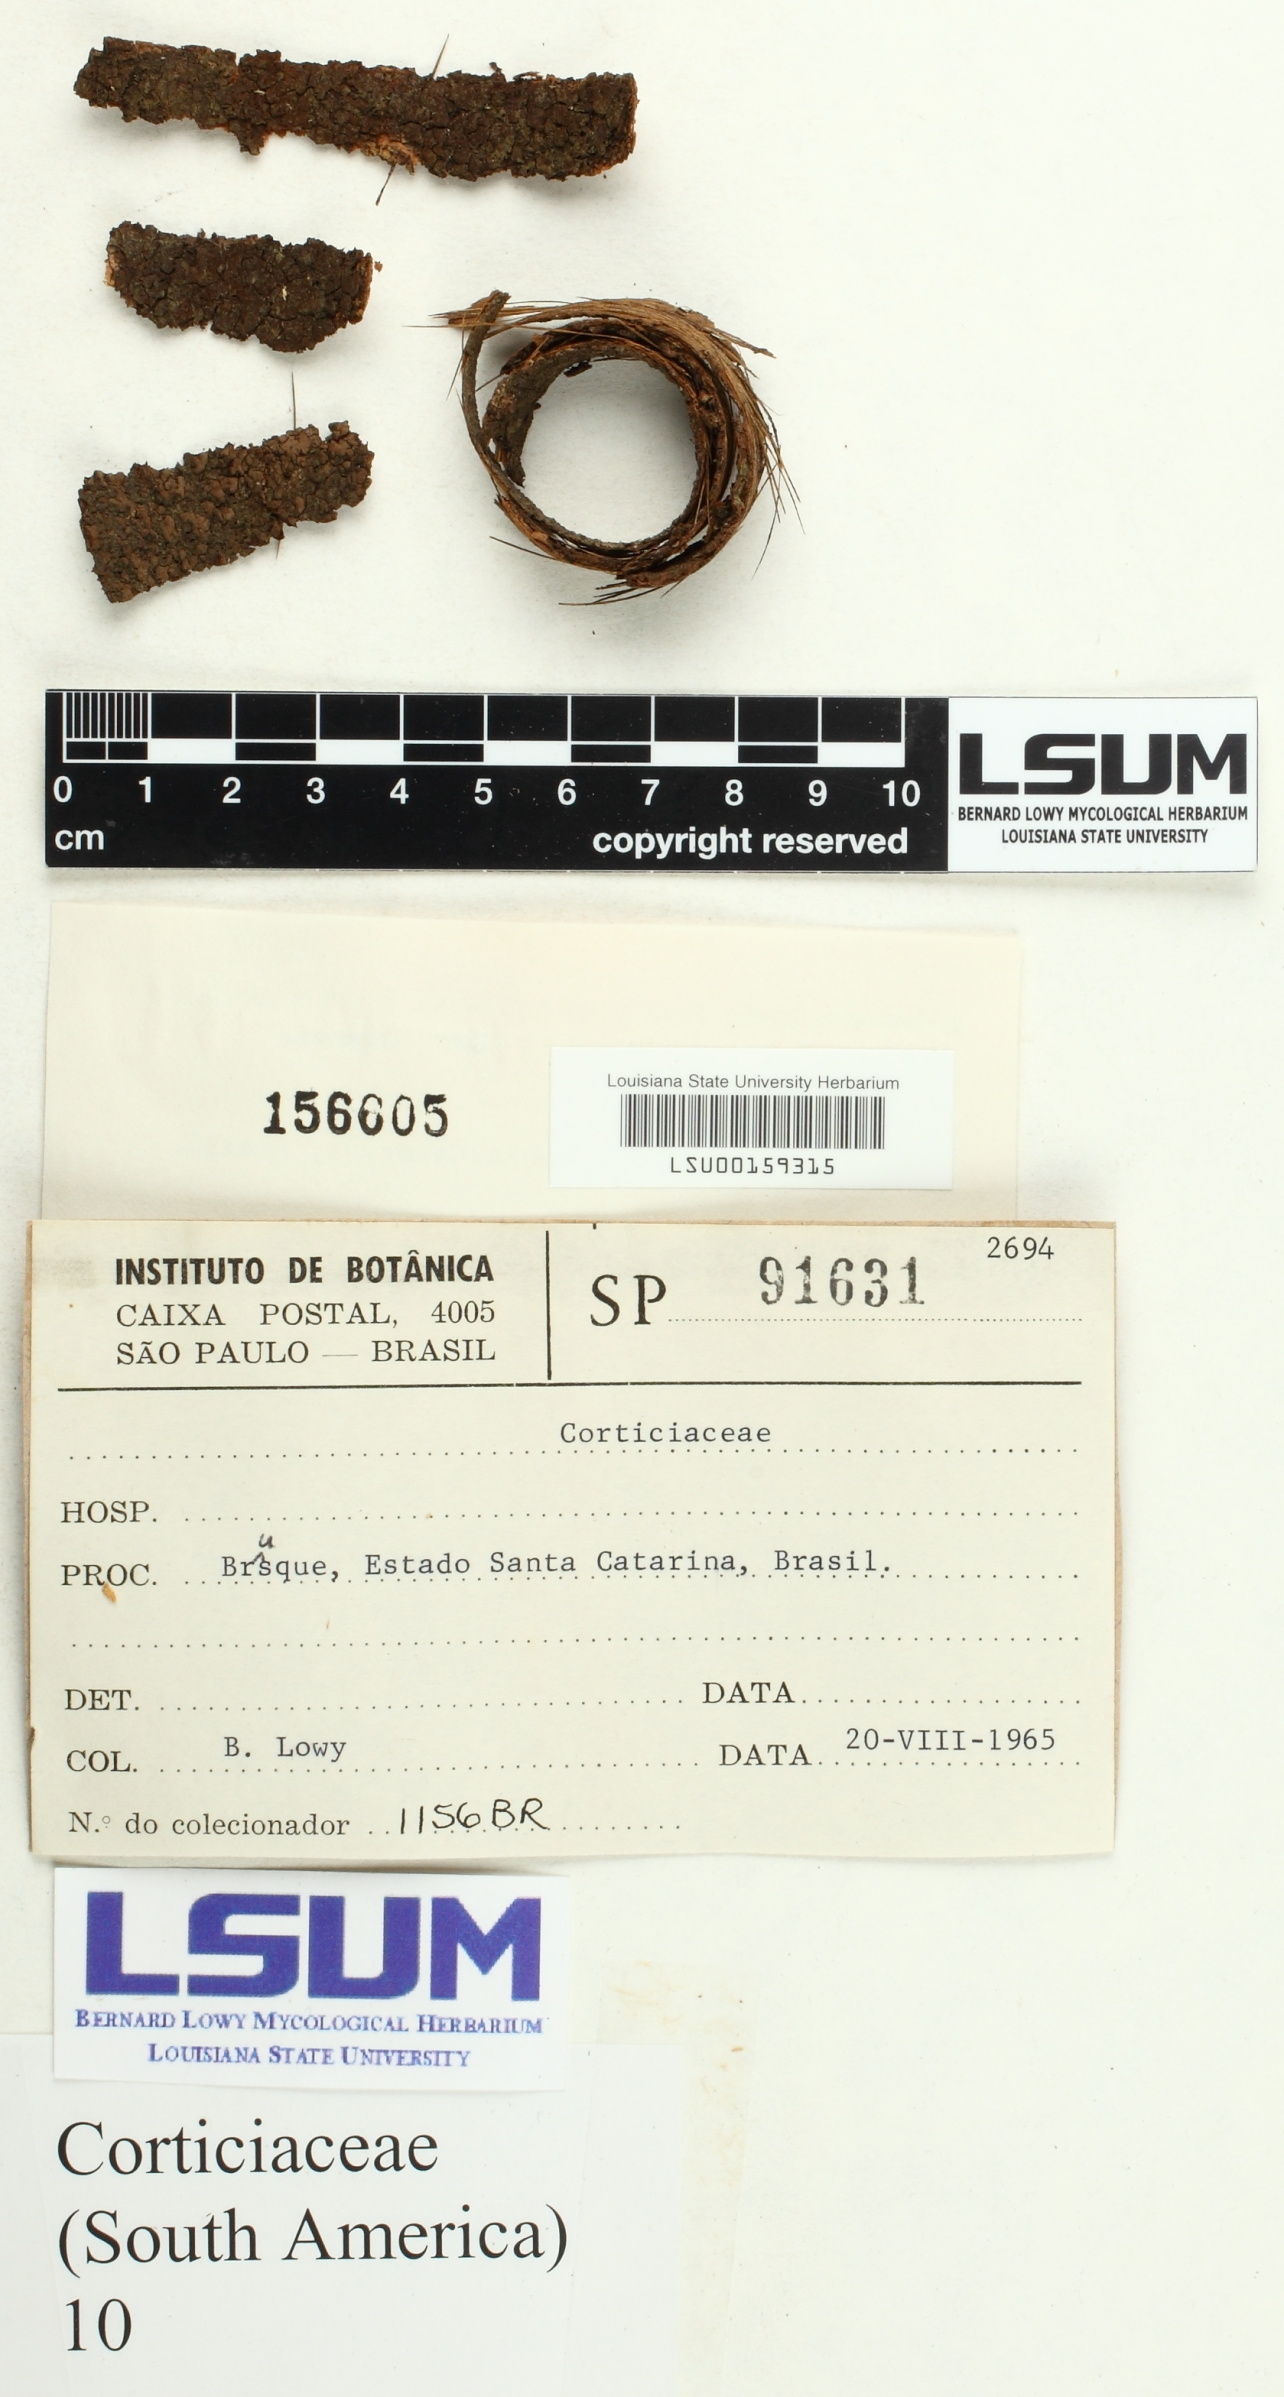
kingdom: Fungi
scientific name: Fungi
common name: Fungi
